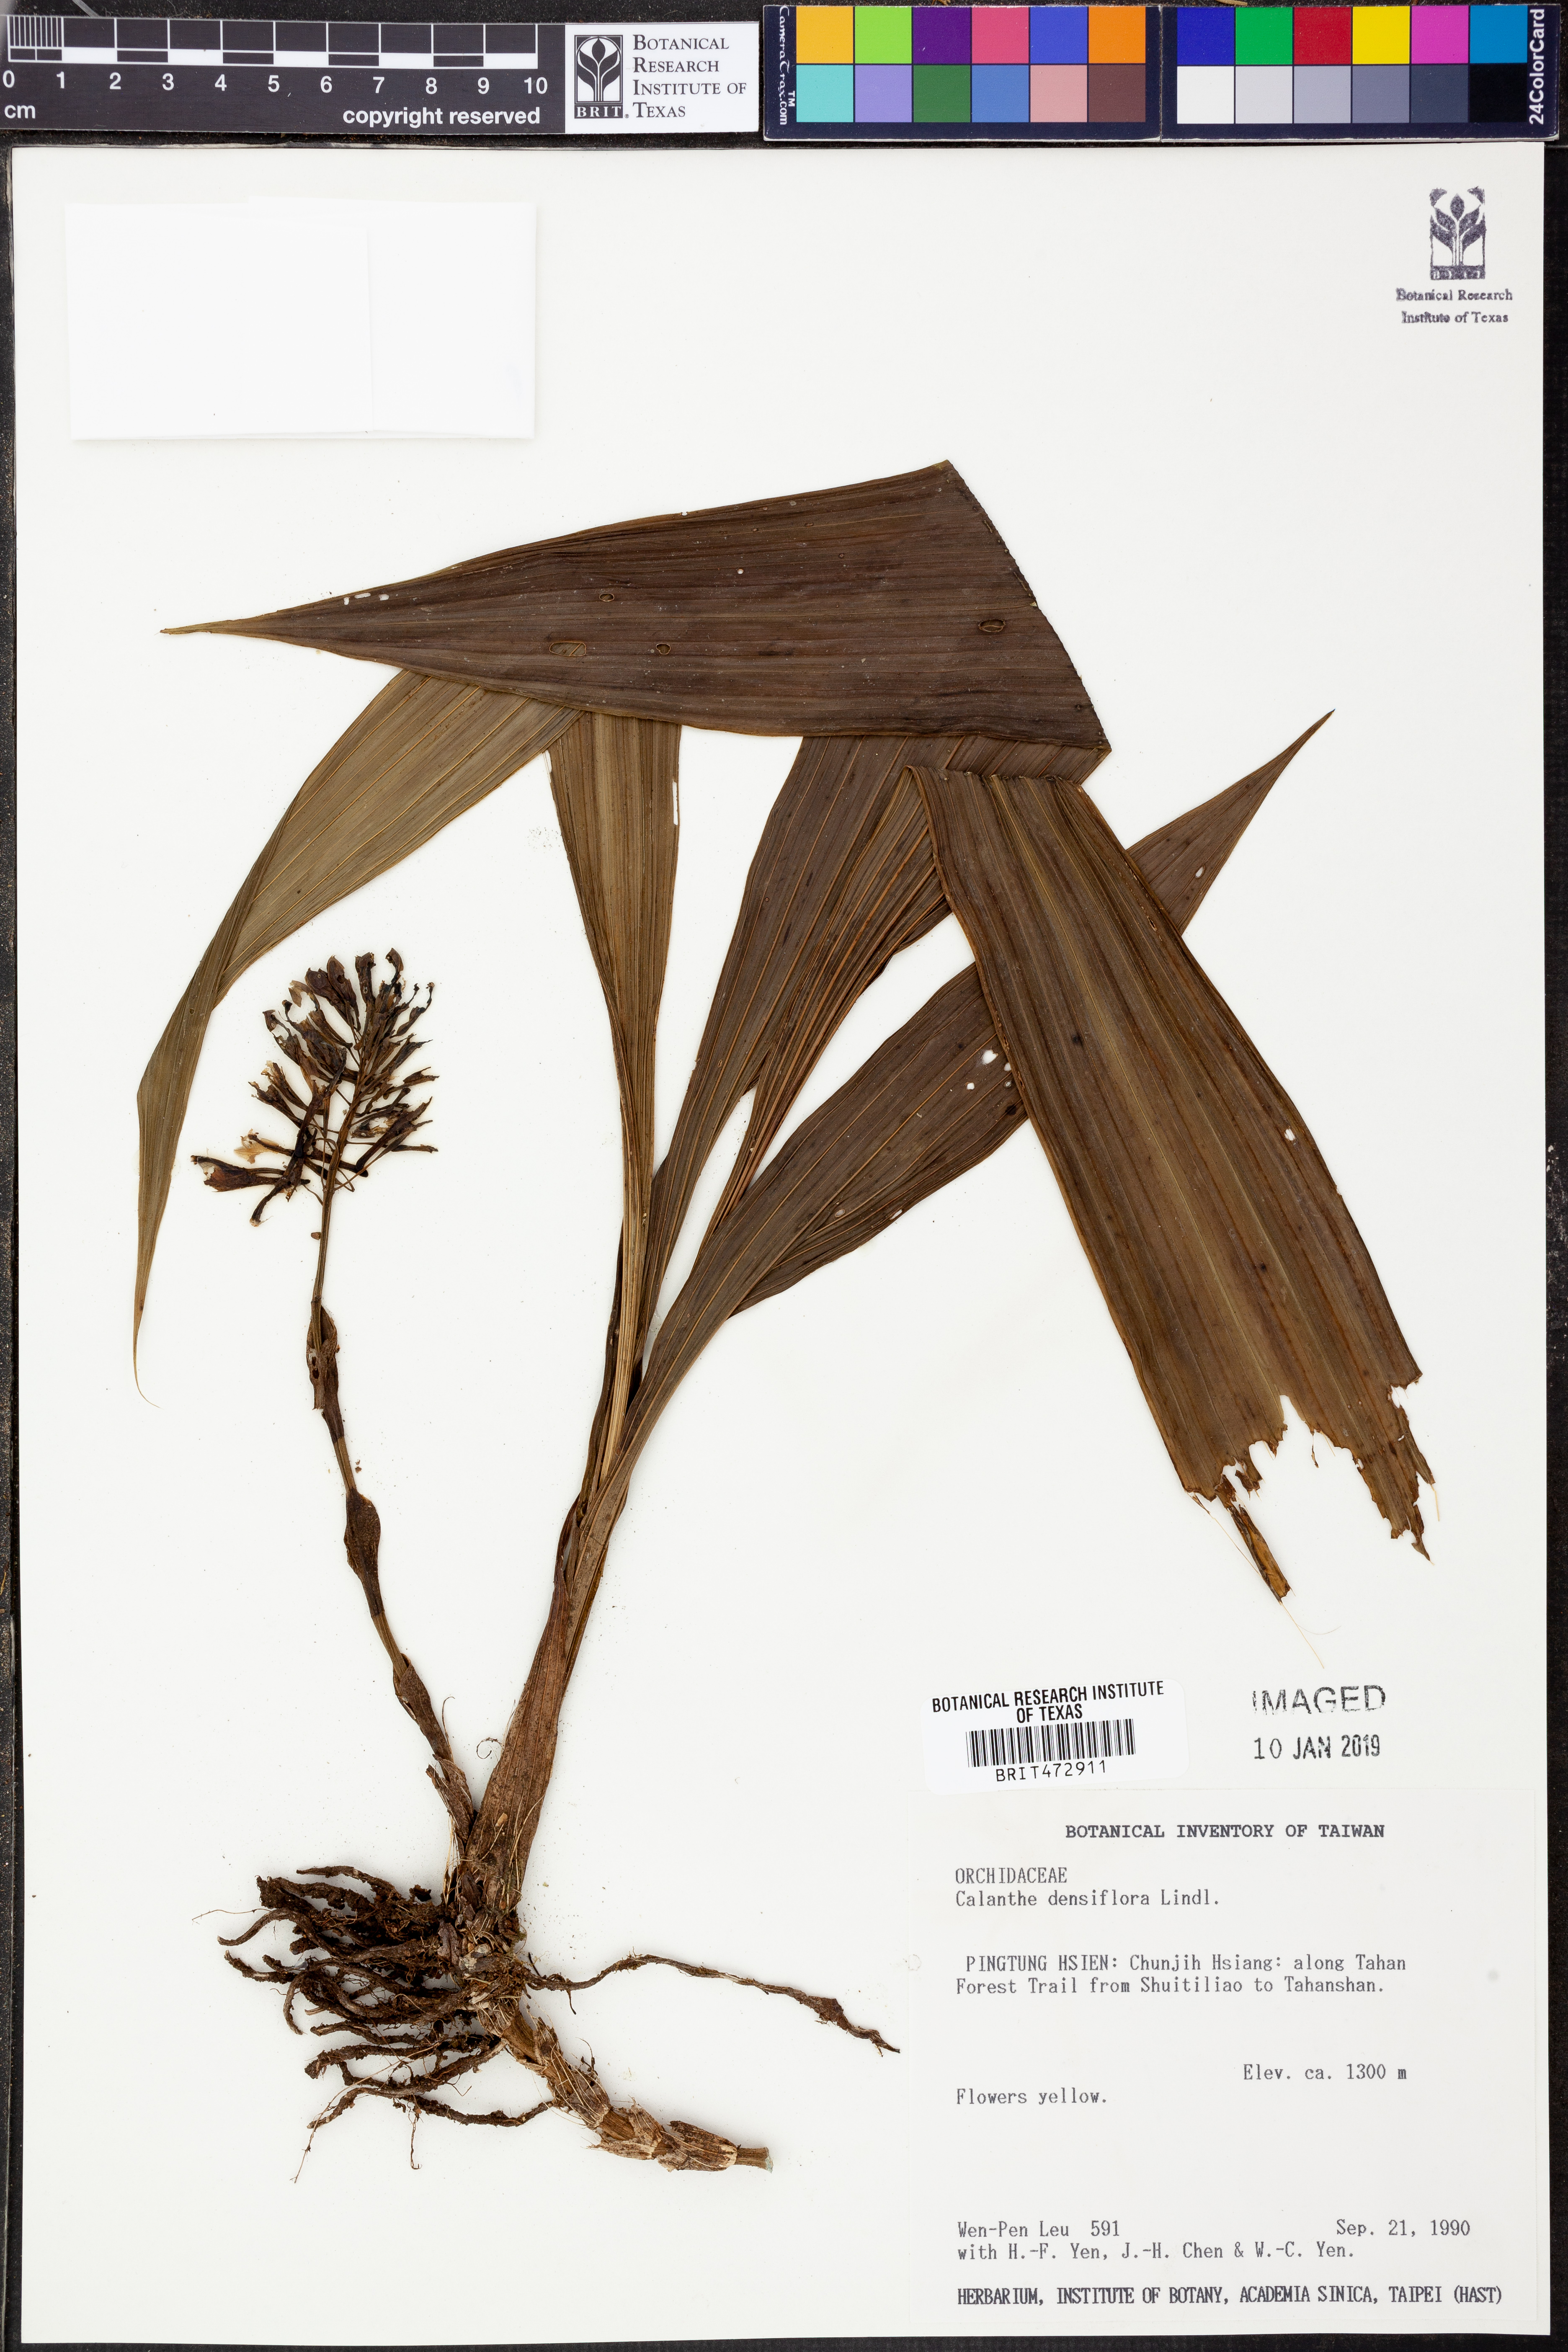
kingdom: Plantae
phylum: Tracheophyta
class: Liliopsida
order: Asparagales
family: Orchidaceae
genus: Calanthe
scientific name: Calanthe densiflora
